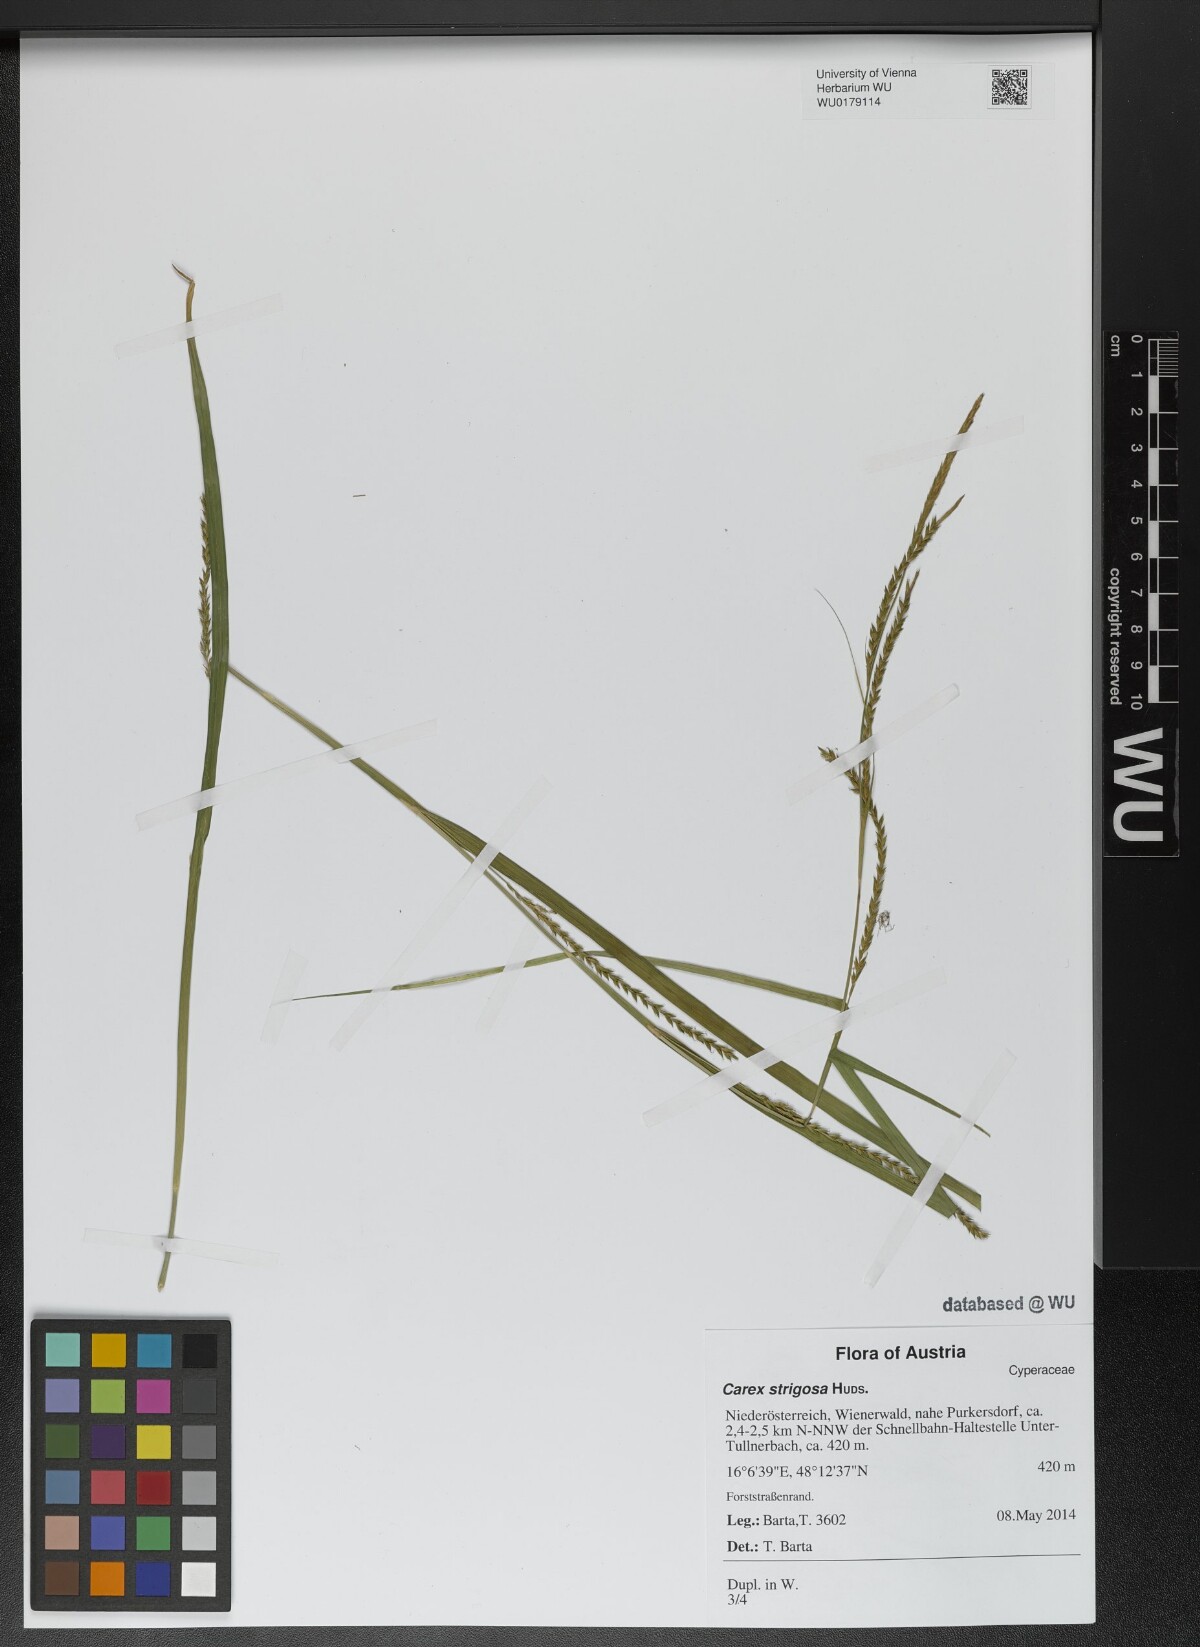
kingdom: Plantae
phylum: Tracheophyta
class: Liliopsida
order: Poales
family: Cyperaceae
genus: Carex
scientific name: Carex strigosa
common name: Thin-spiked wood-sedge
